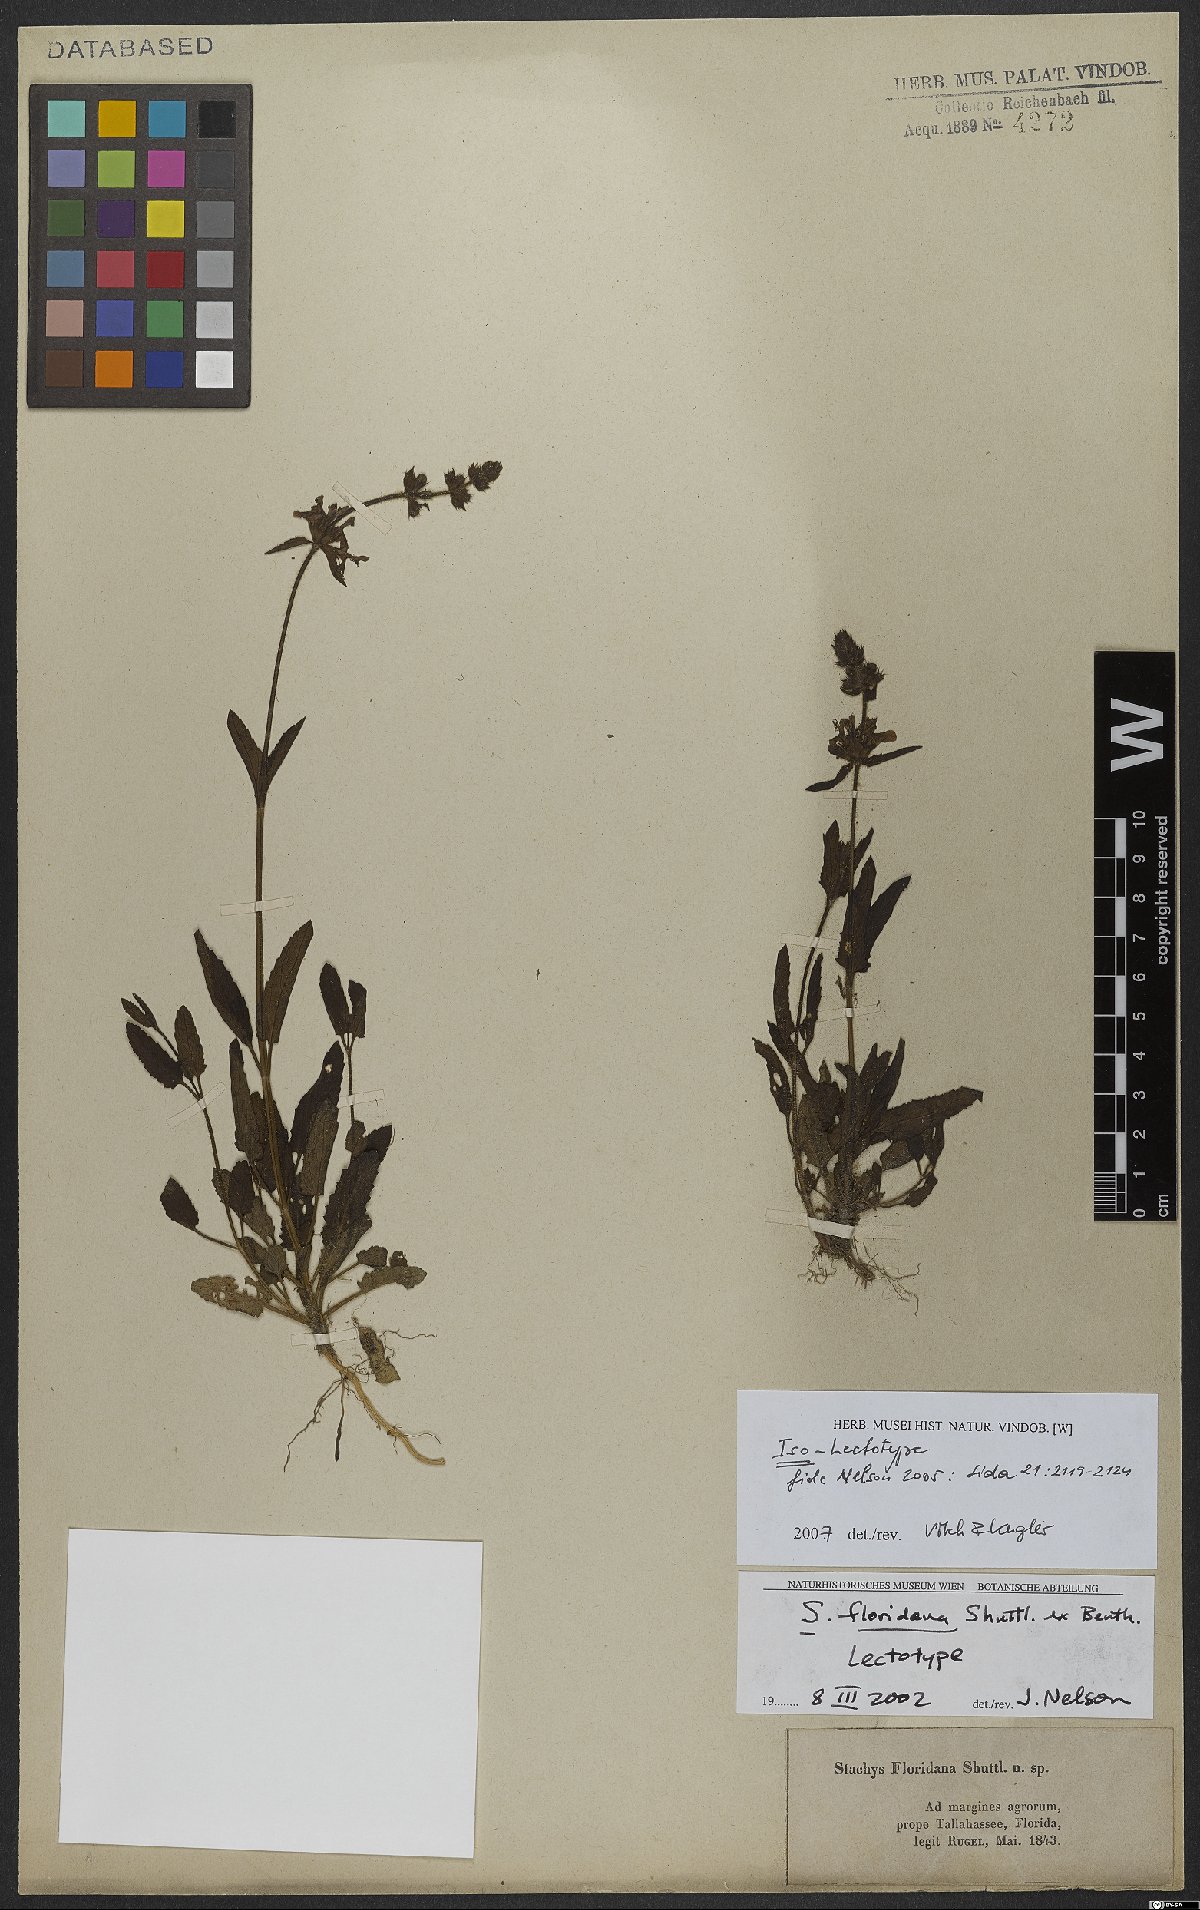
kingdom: Plantae
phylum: Tracheophyta
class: Magnoliopsida
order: Lamiales
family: Lamiaceae
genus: Stachys
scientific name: Stachys floridana
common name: Florida betony
